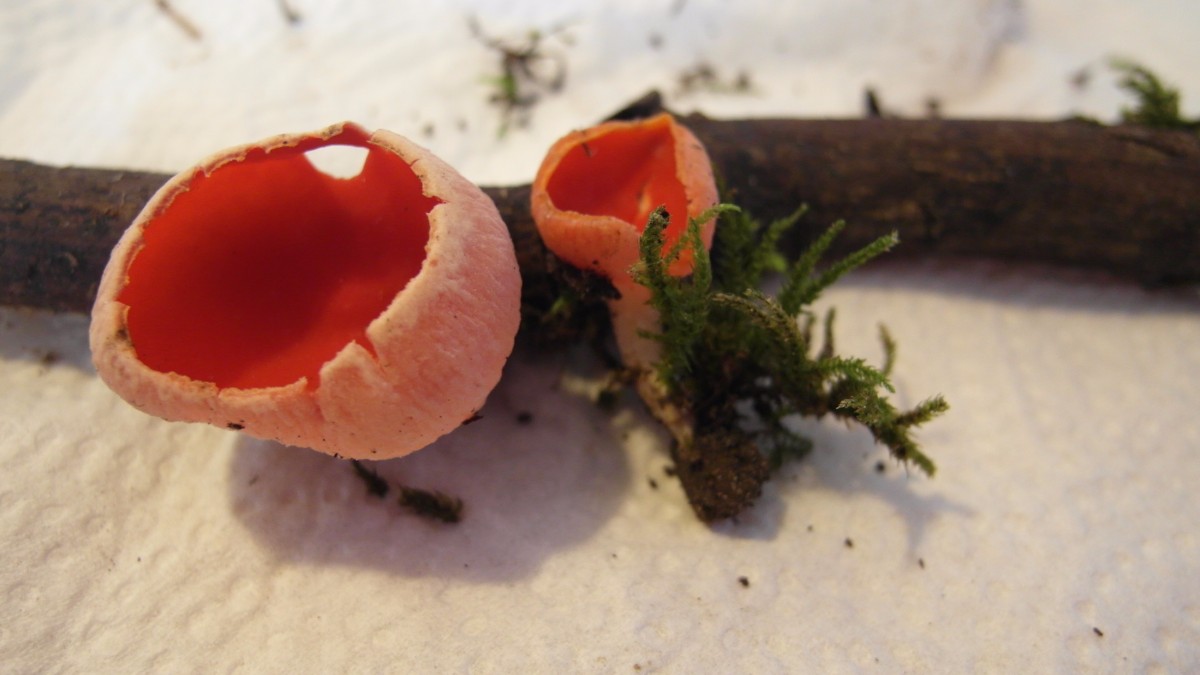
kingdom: Fungi
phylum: Ascomycota
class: Pezizomycetes
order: Pezizales
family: Sarcoscyphaceae
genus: Sarcoscypha
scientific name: Sarcoscypha coccinea
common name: skarlagen-pragtbæger
